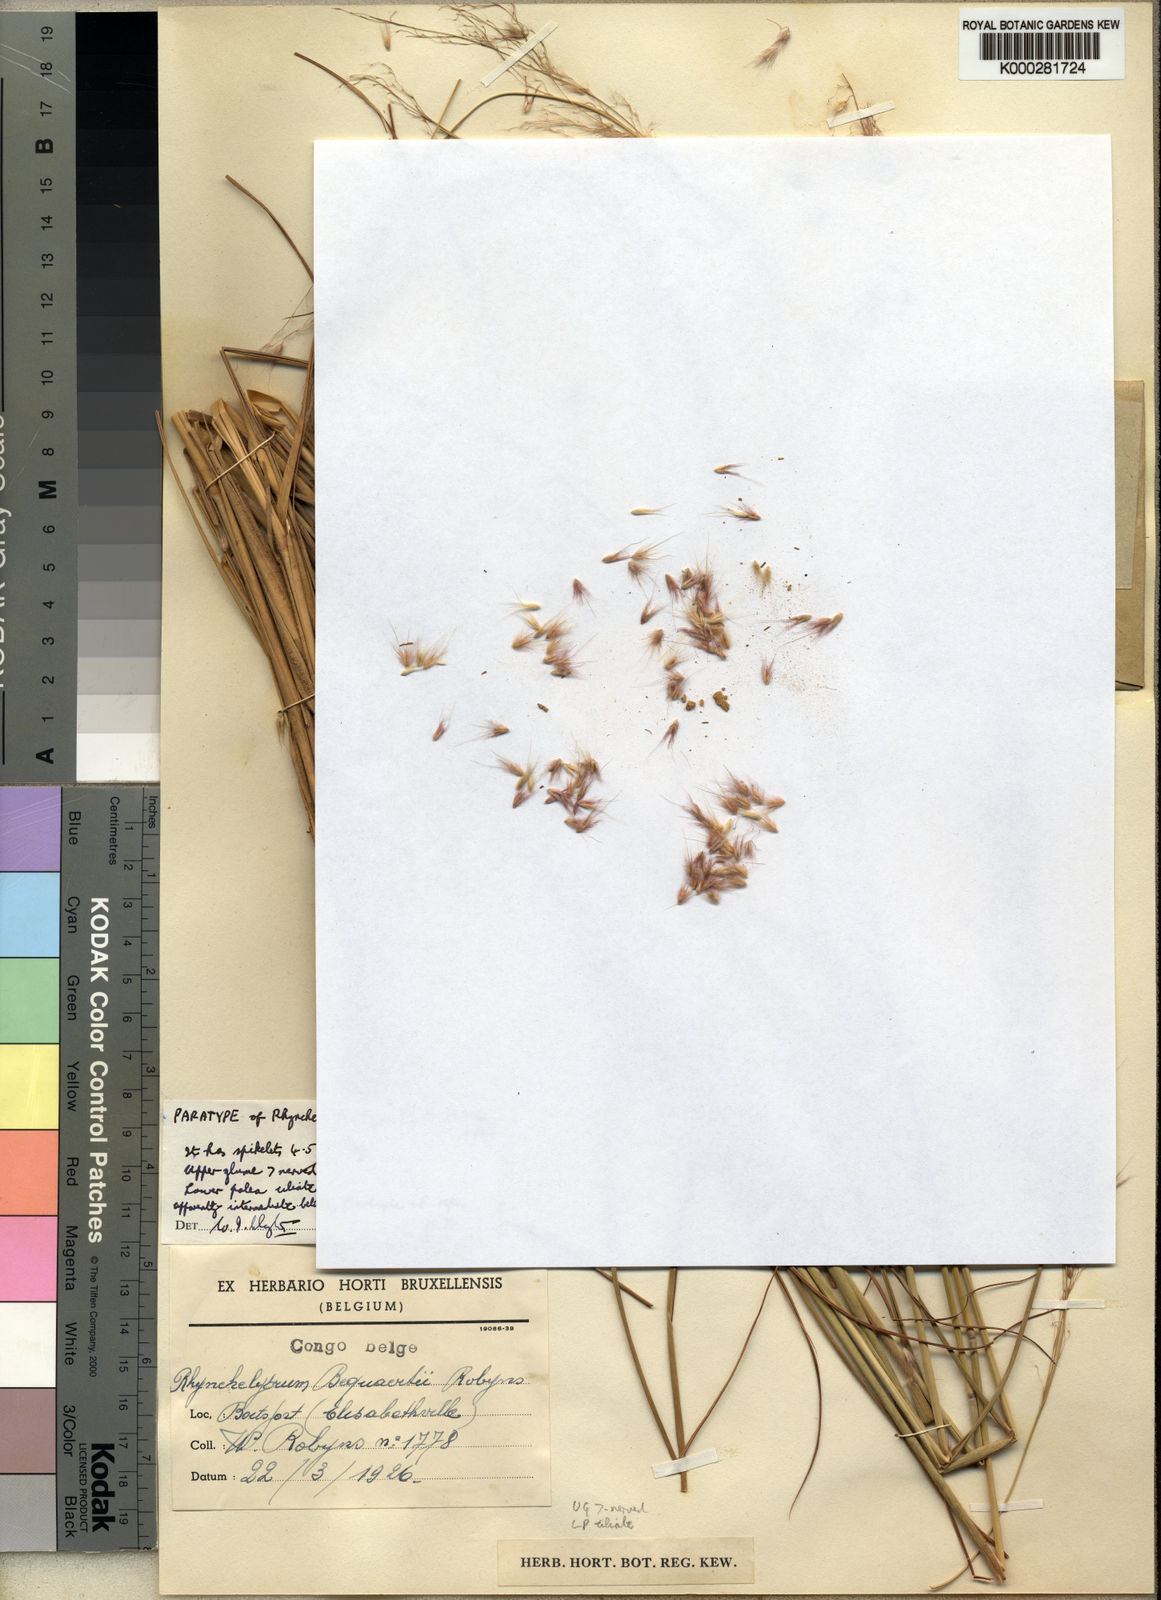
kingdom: Plantae
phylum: Tracheophyta
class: Liliopsida
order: Poales
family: Poaceae
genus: Melinis
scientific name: Melinis ambigua
